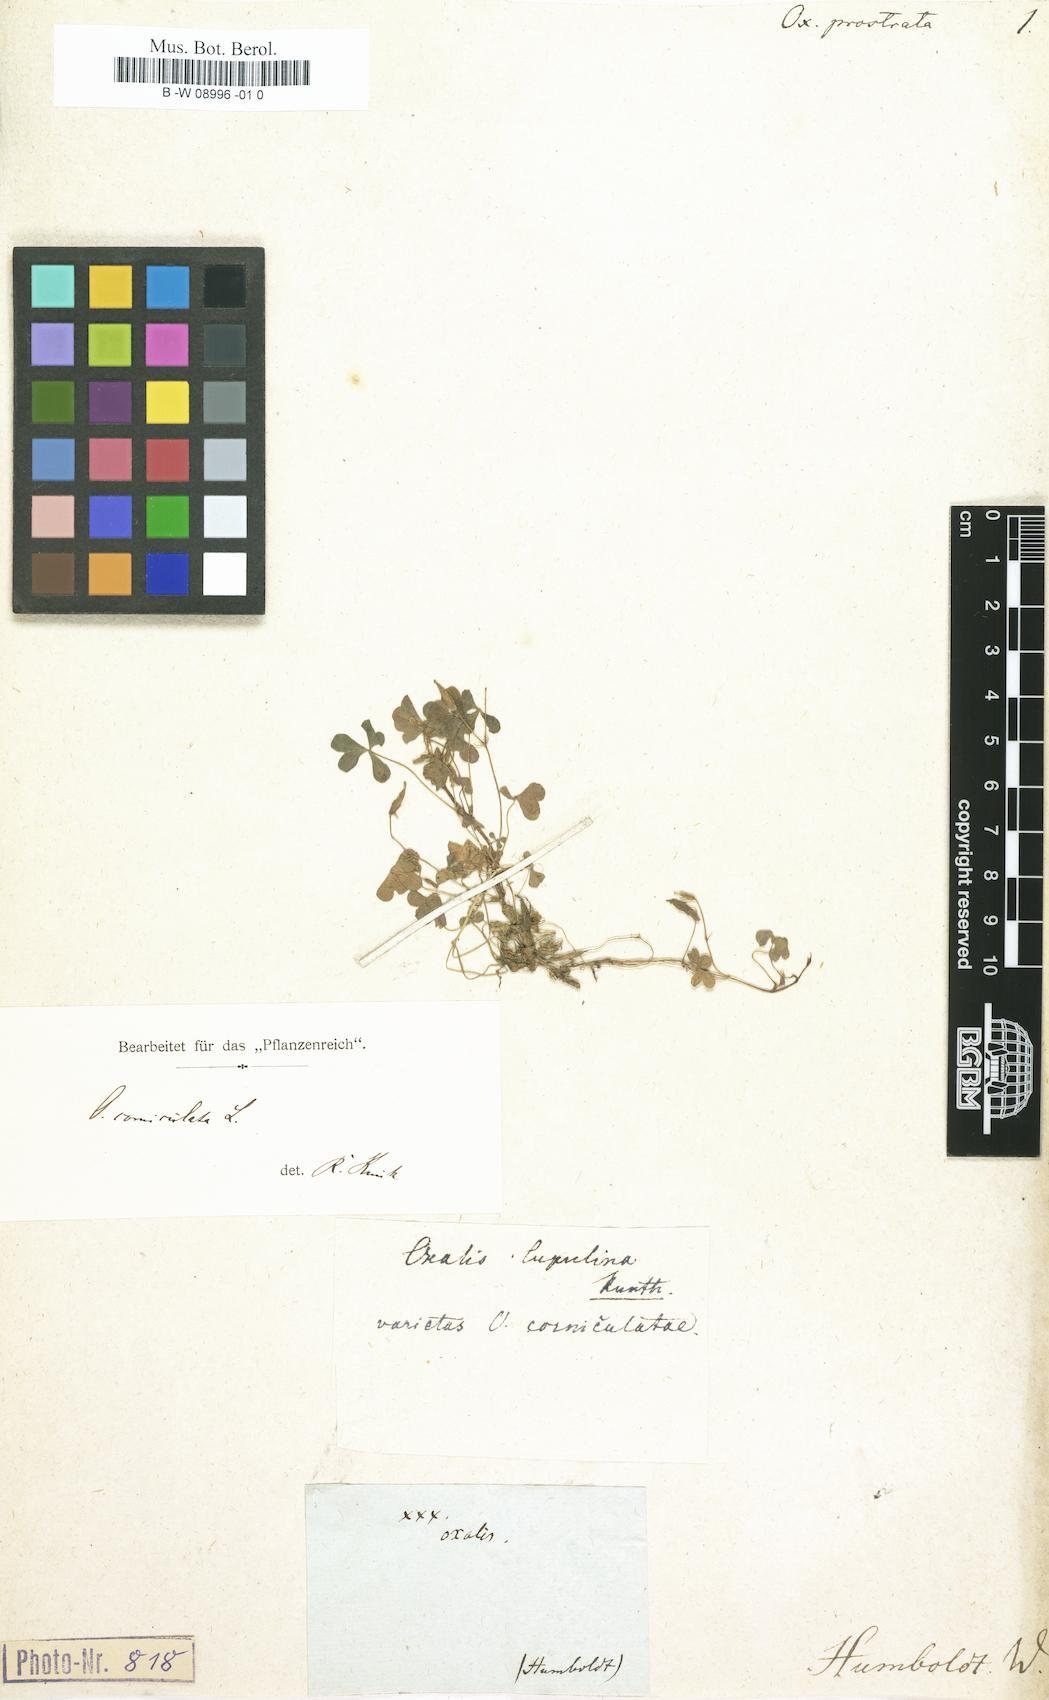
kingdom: Plantae
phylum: Tracheophyta
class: Magnoliopsida
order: Oxalidales
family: Oxalidaceae
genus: Oxalis
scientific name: Oxalis dillenii
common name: Sussex yellow-sorrel
